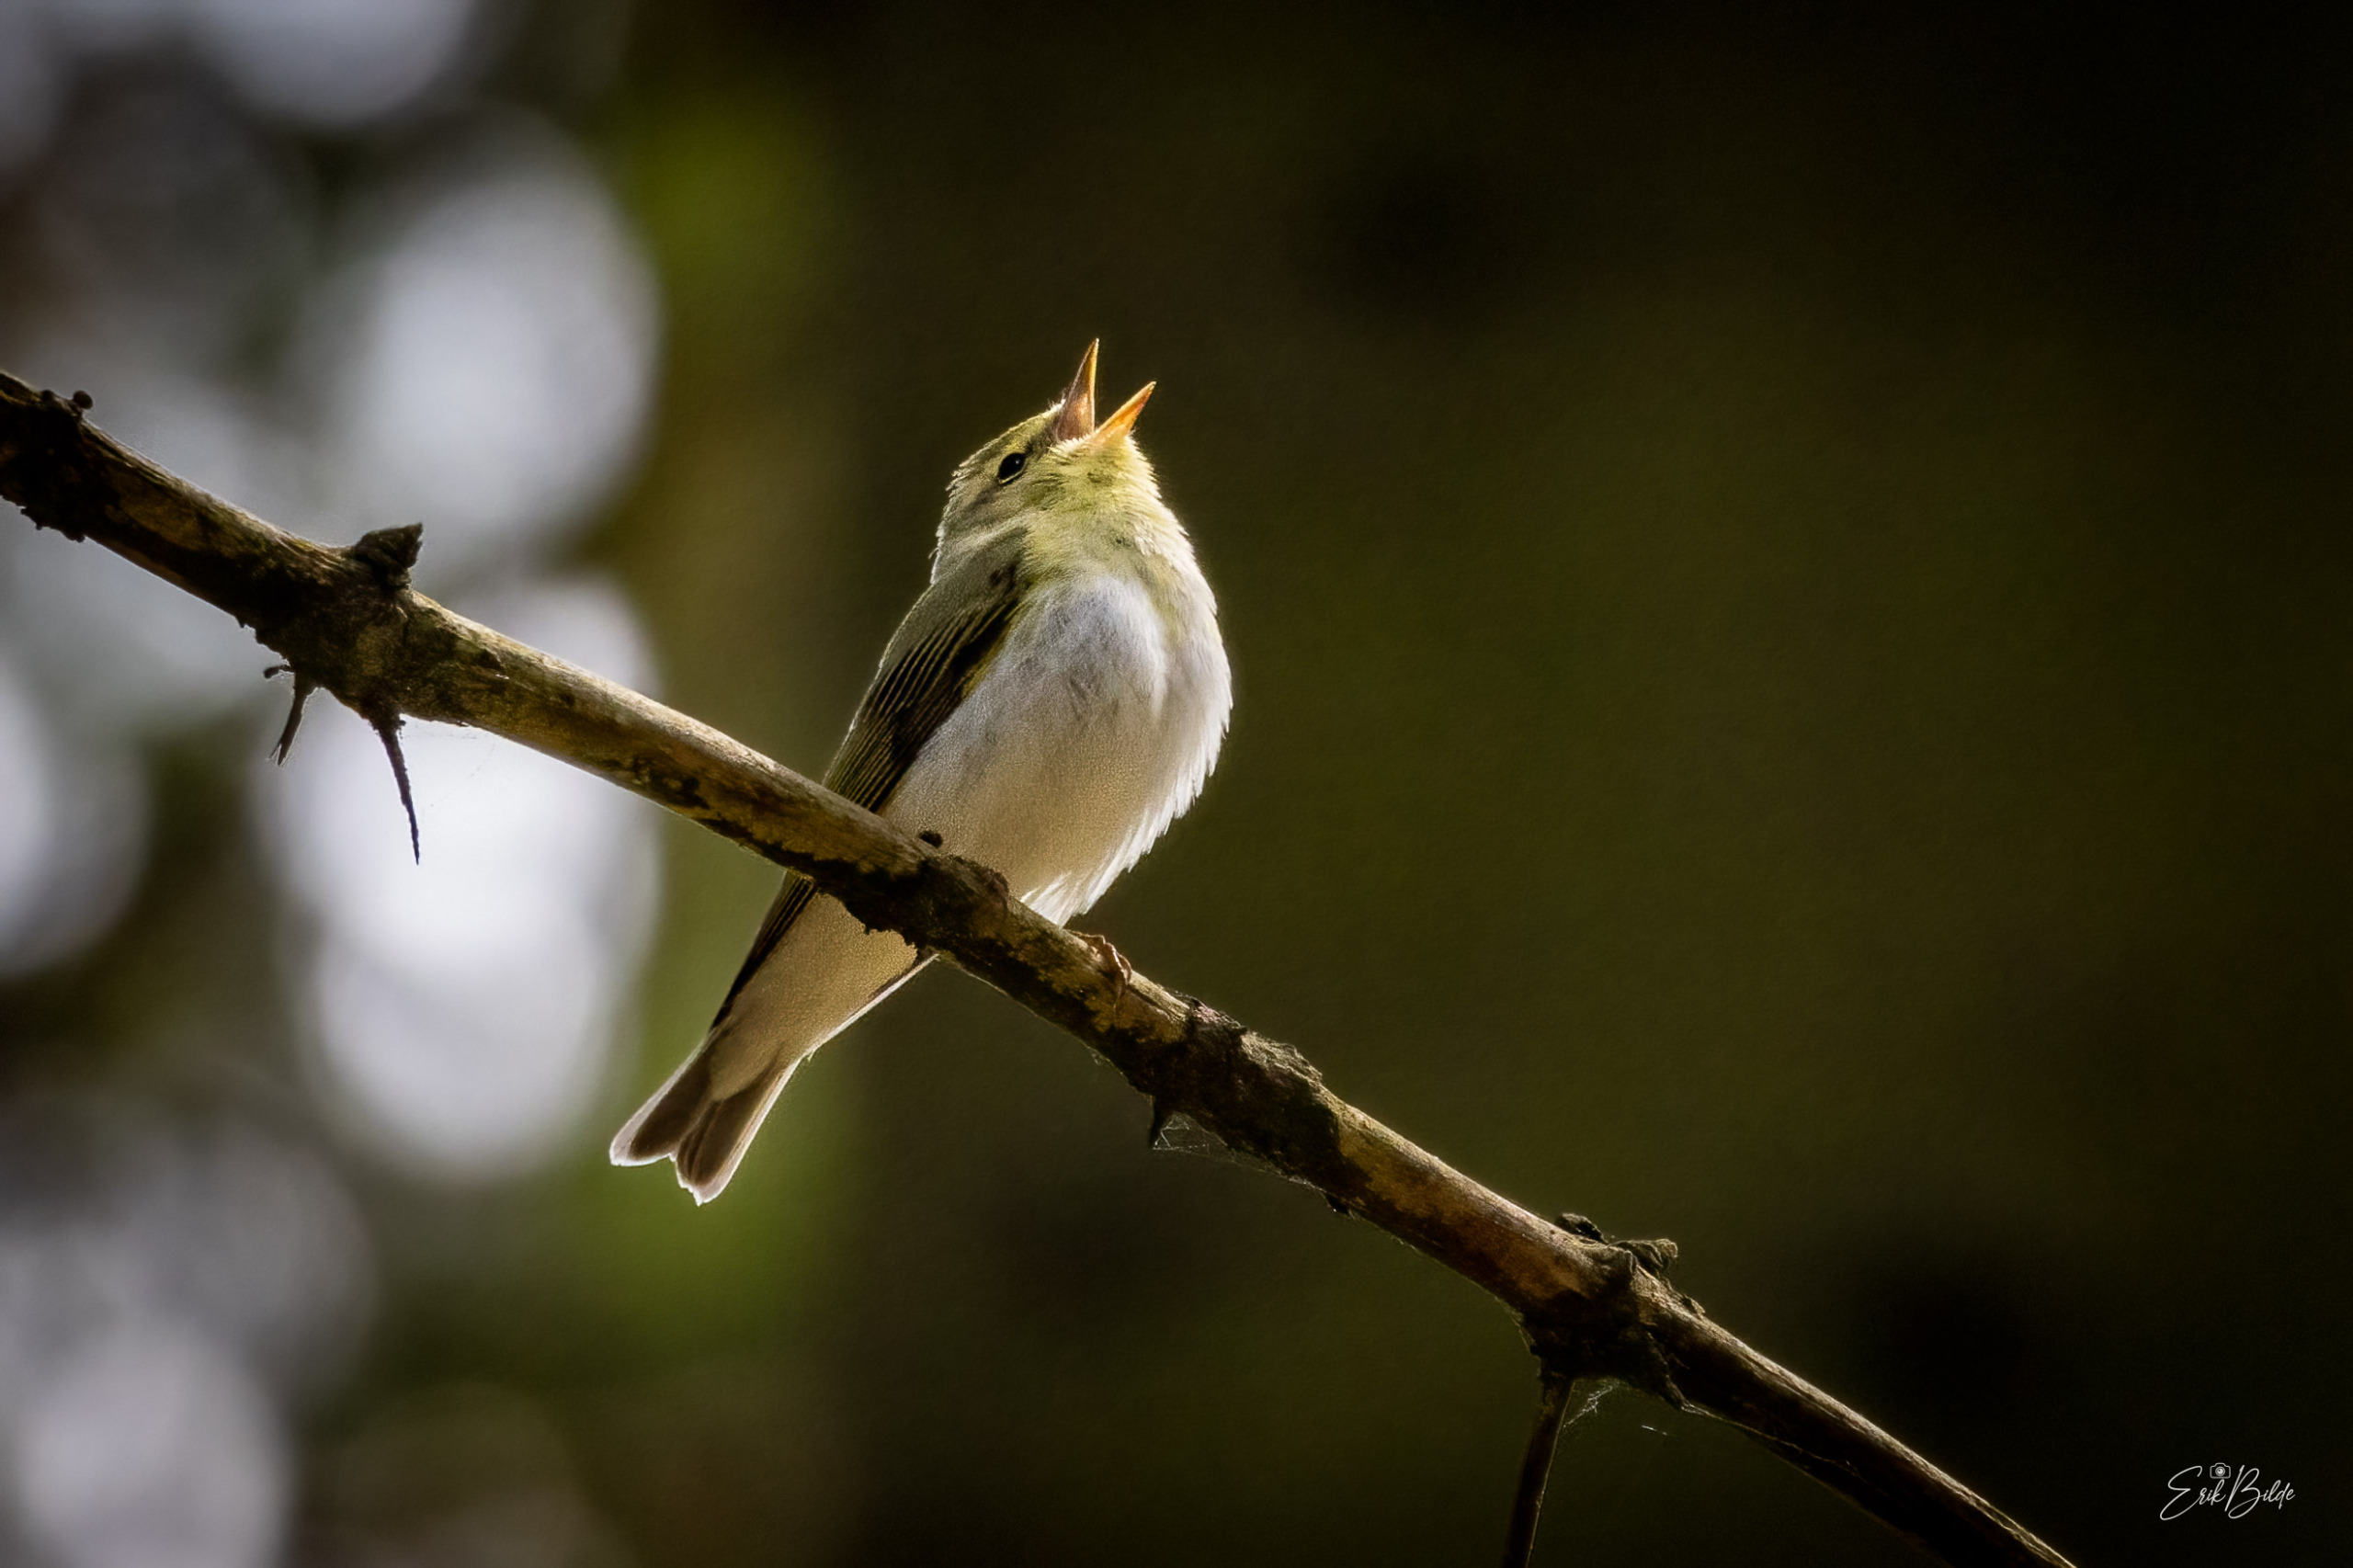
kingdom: Animalia
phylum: Chordata
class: Aves
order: Passeriformes
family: Phylloscopidae
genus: Phylloscopus
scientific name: Phylloscopus sibillatrix
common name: Skovsanger
